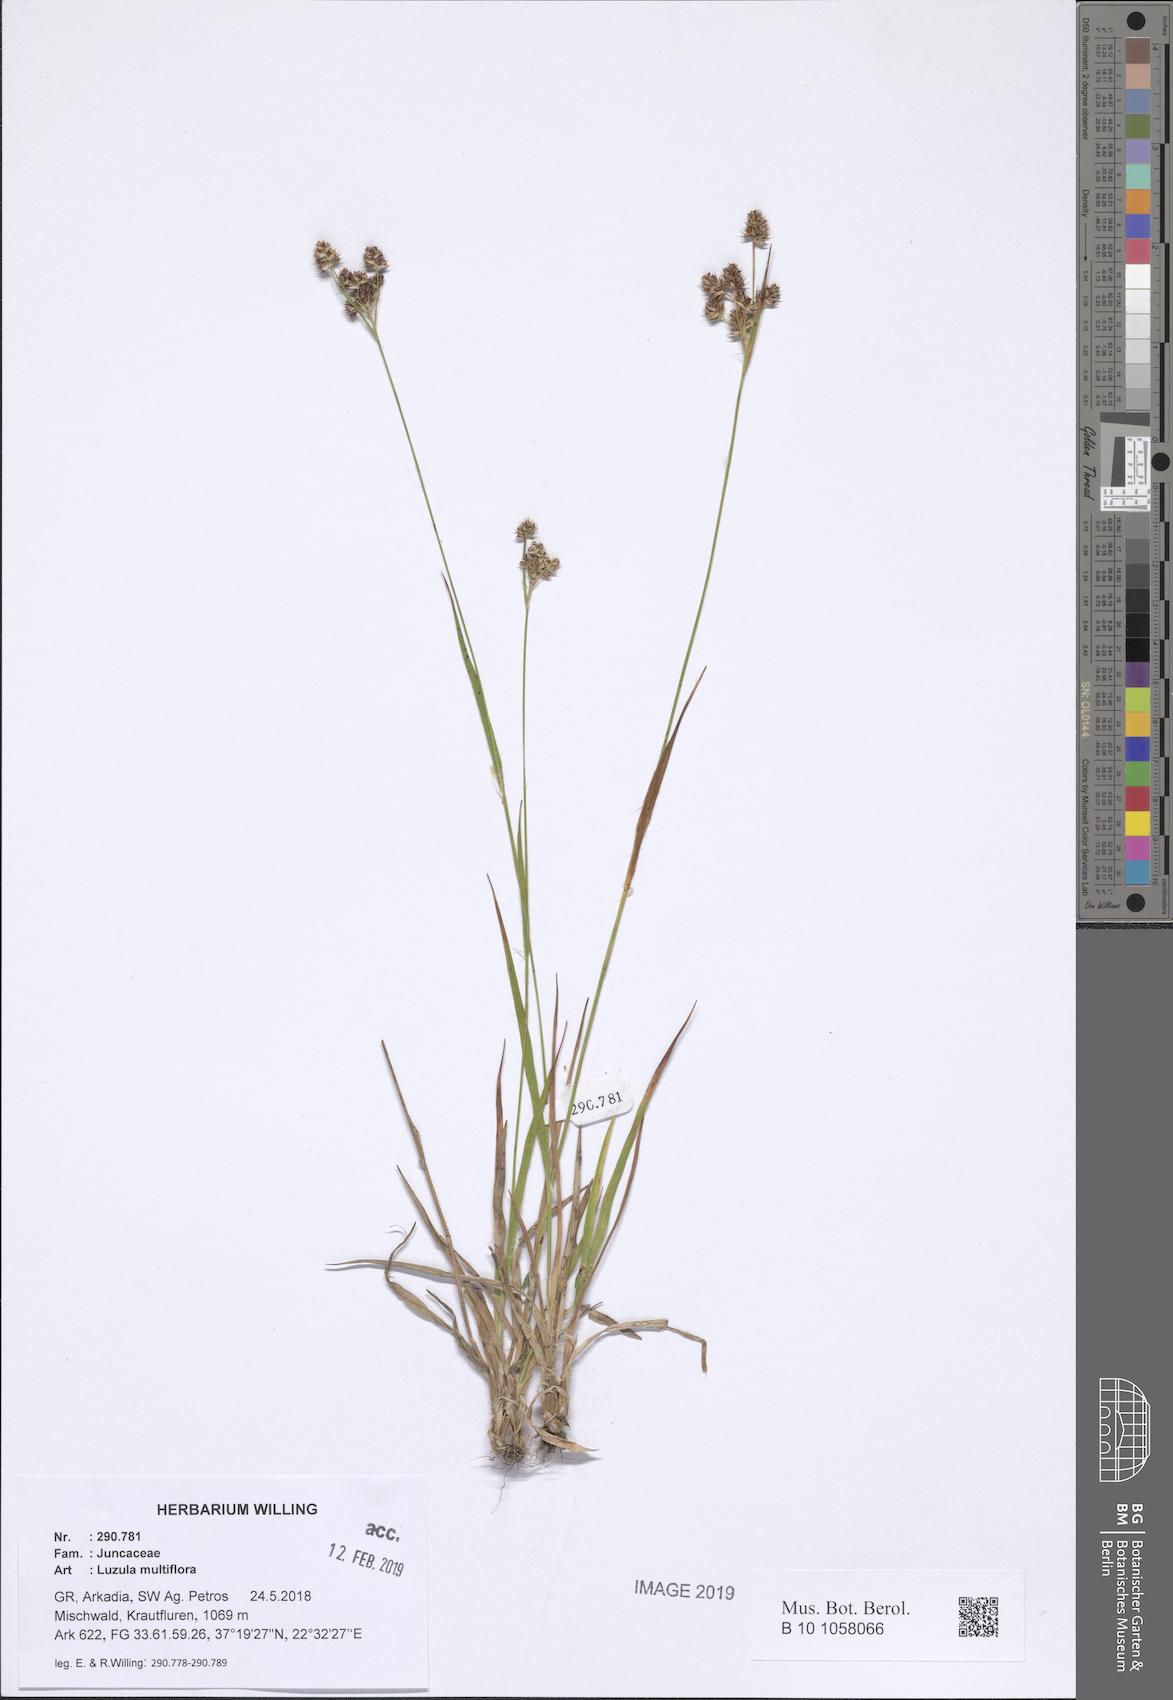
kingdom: Plantae
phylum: Tracheophyta
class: Liliopsida
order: Poales
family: Juncaceae
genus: Luzula
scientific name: Luzula multiflora
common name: Heath wood-rush
